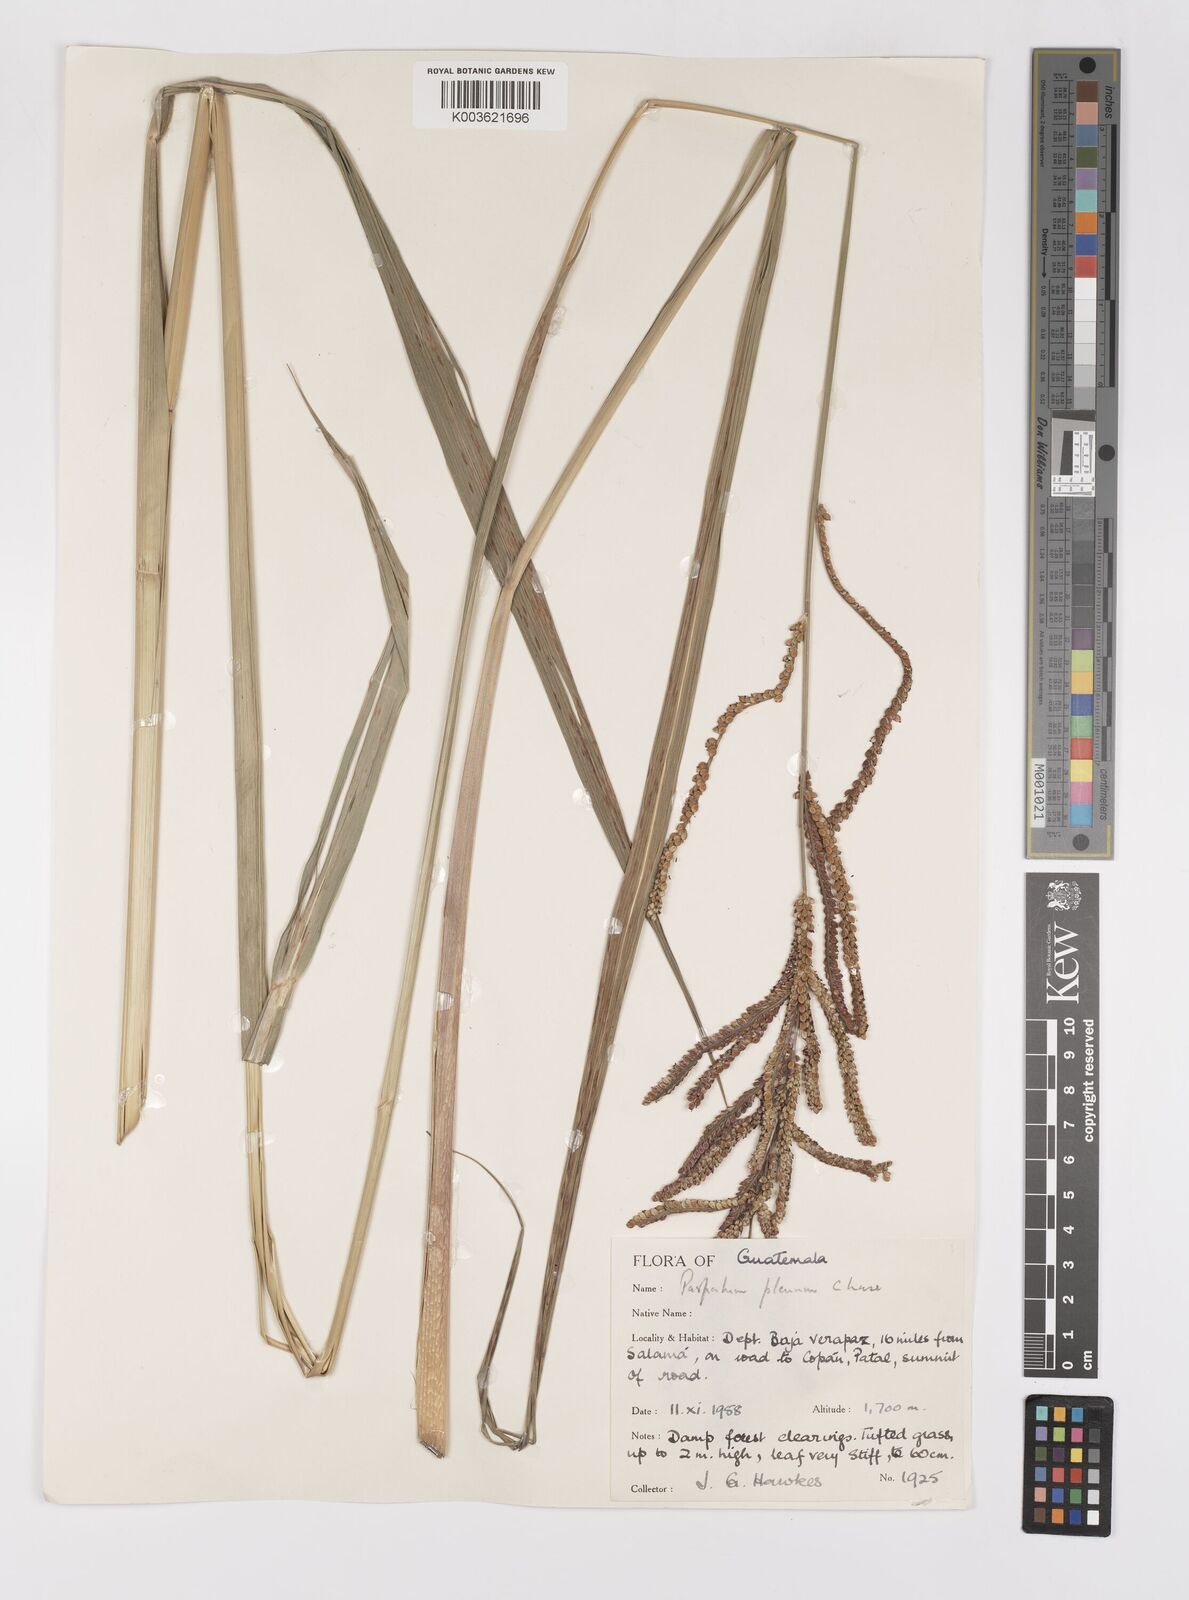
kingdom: Plantae
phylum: Tracheophyta
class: Liliopsida
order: Poales
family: Poaceae
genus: Paspalum
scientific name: Paspalum plenum
